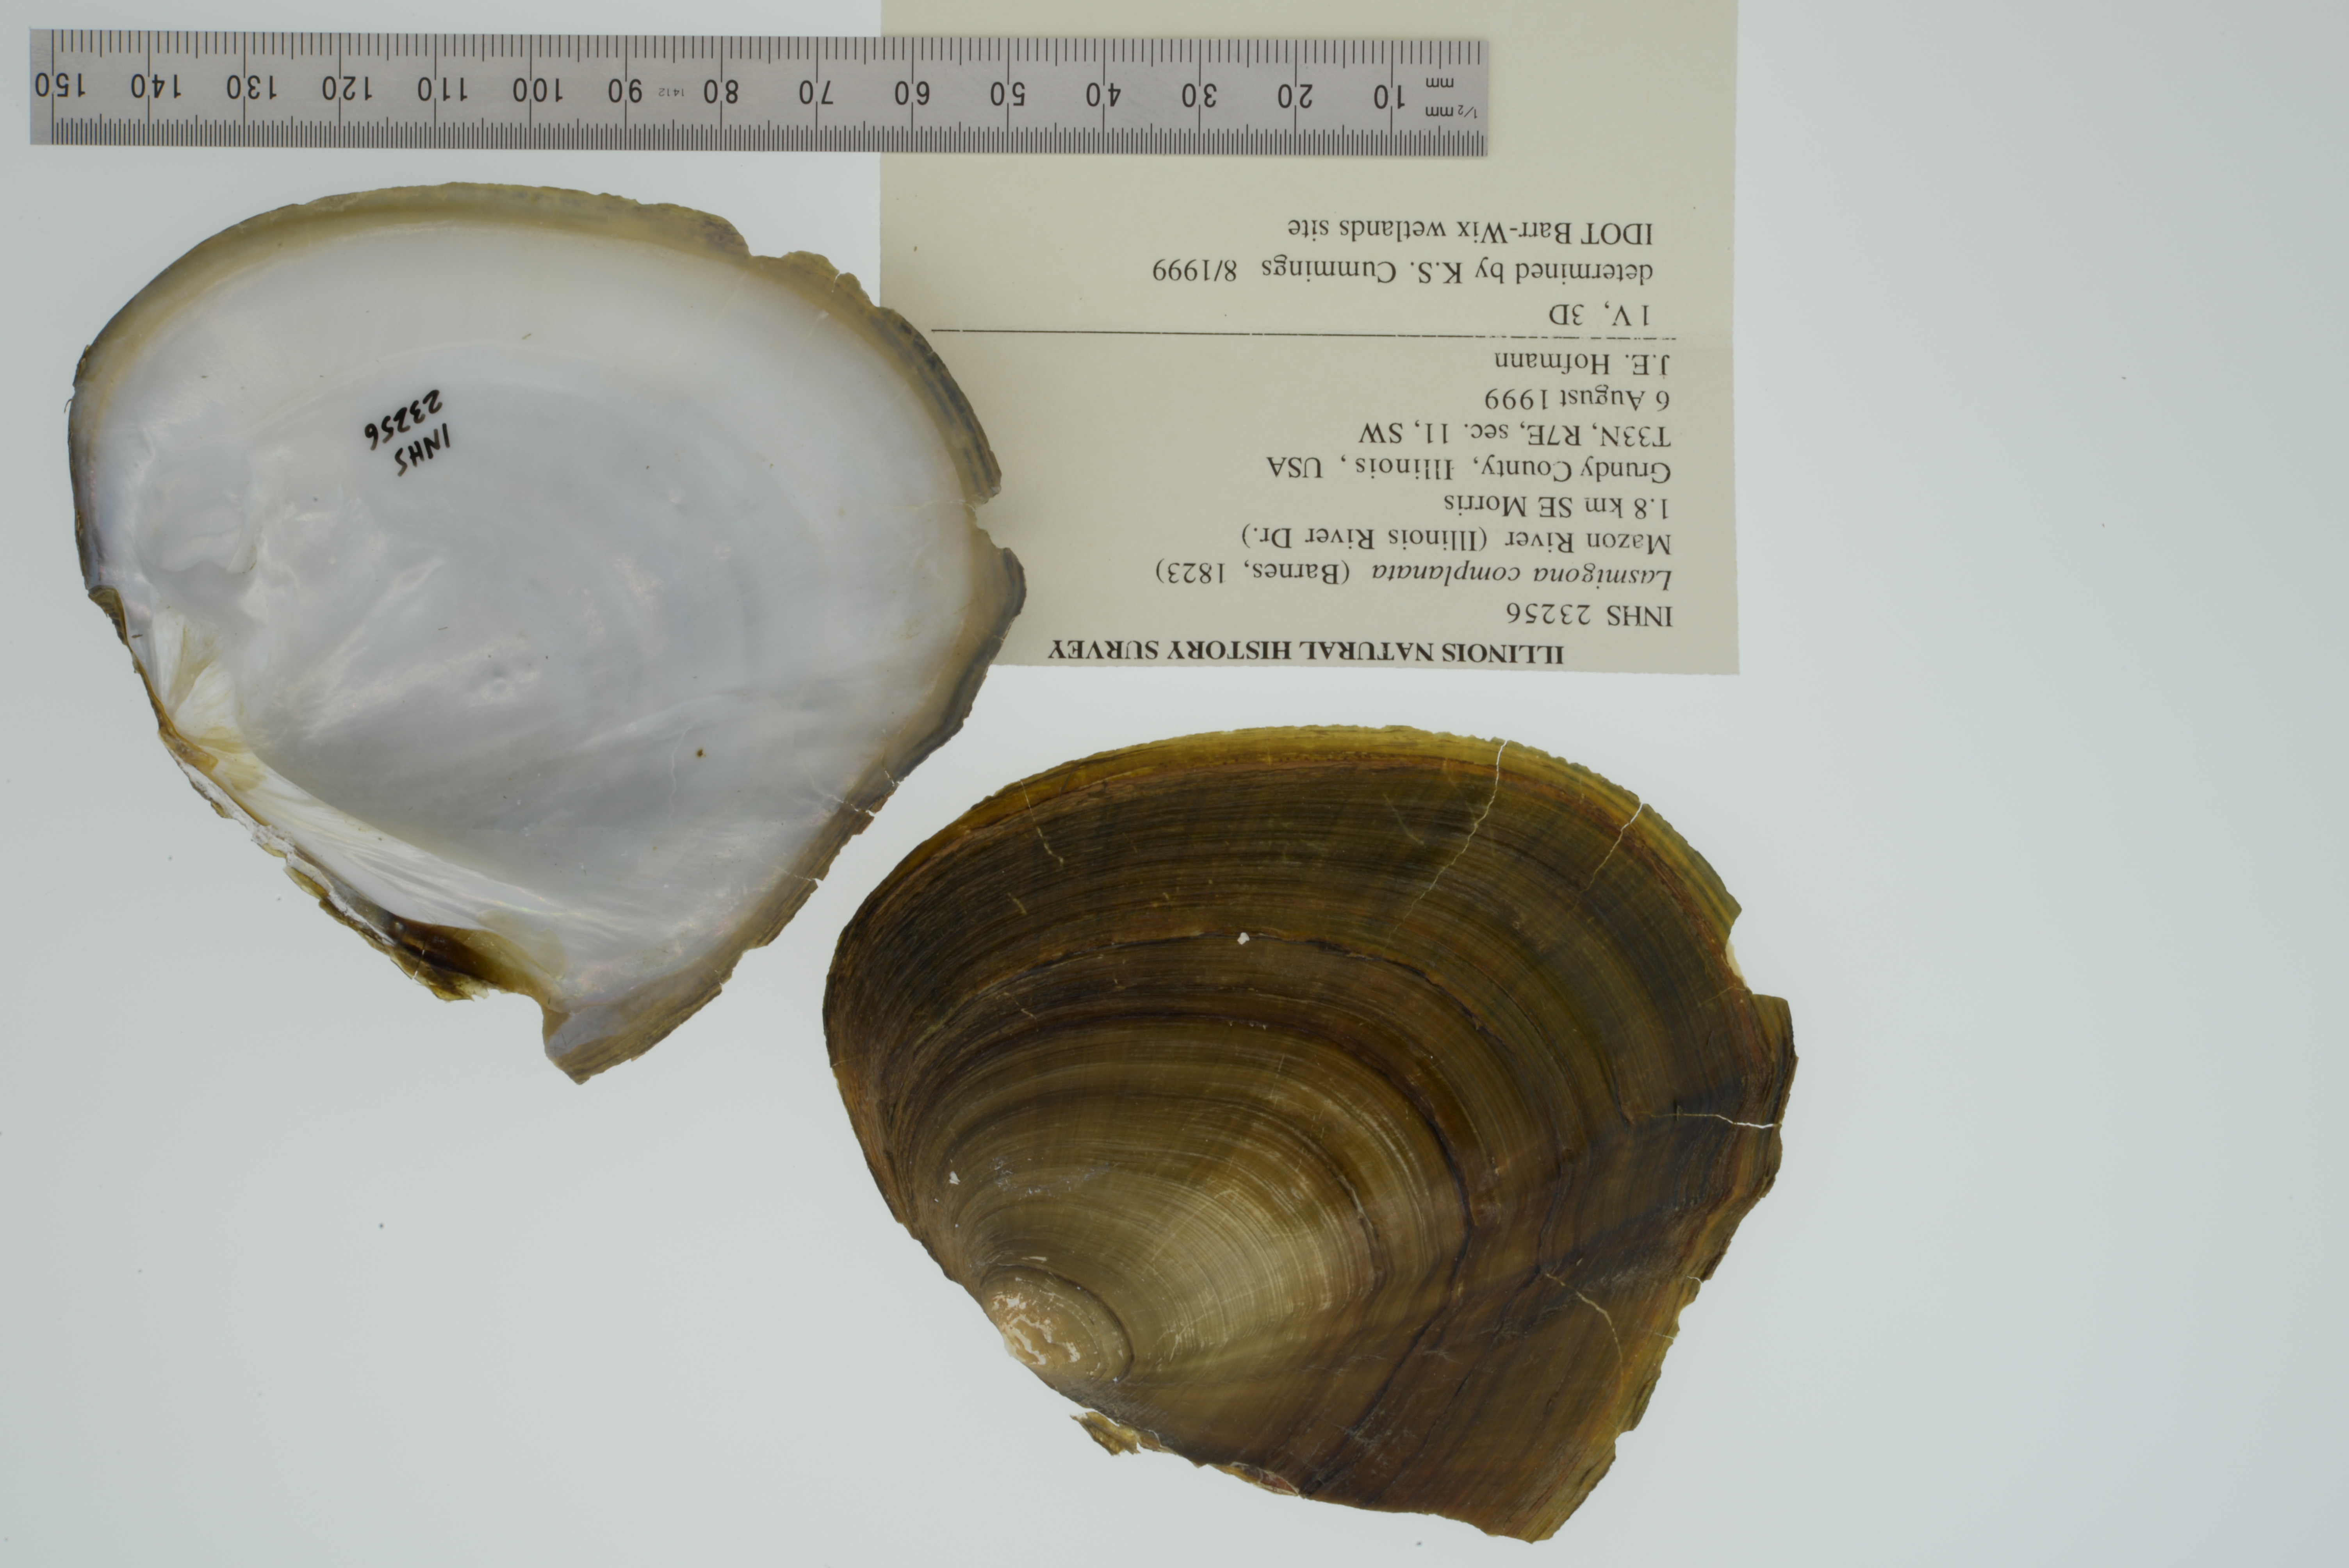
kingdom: Animalia
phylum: Mollusca
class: Bivalvia
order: Unionida
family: Unionidae
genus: Lasmigona
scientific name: Lasmigona complanata
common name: White heelsplitter
